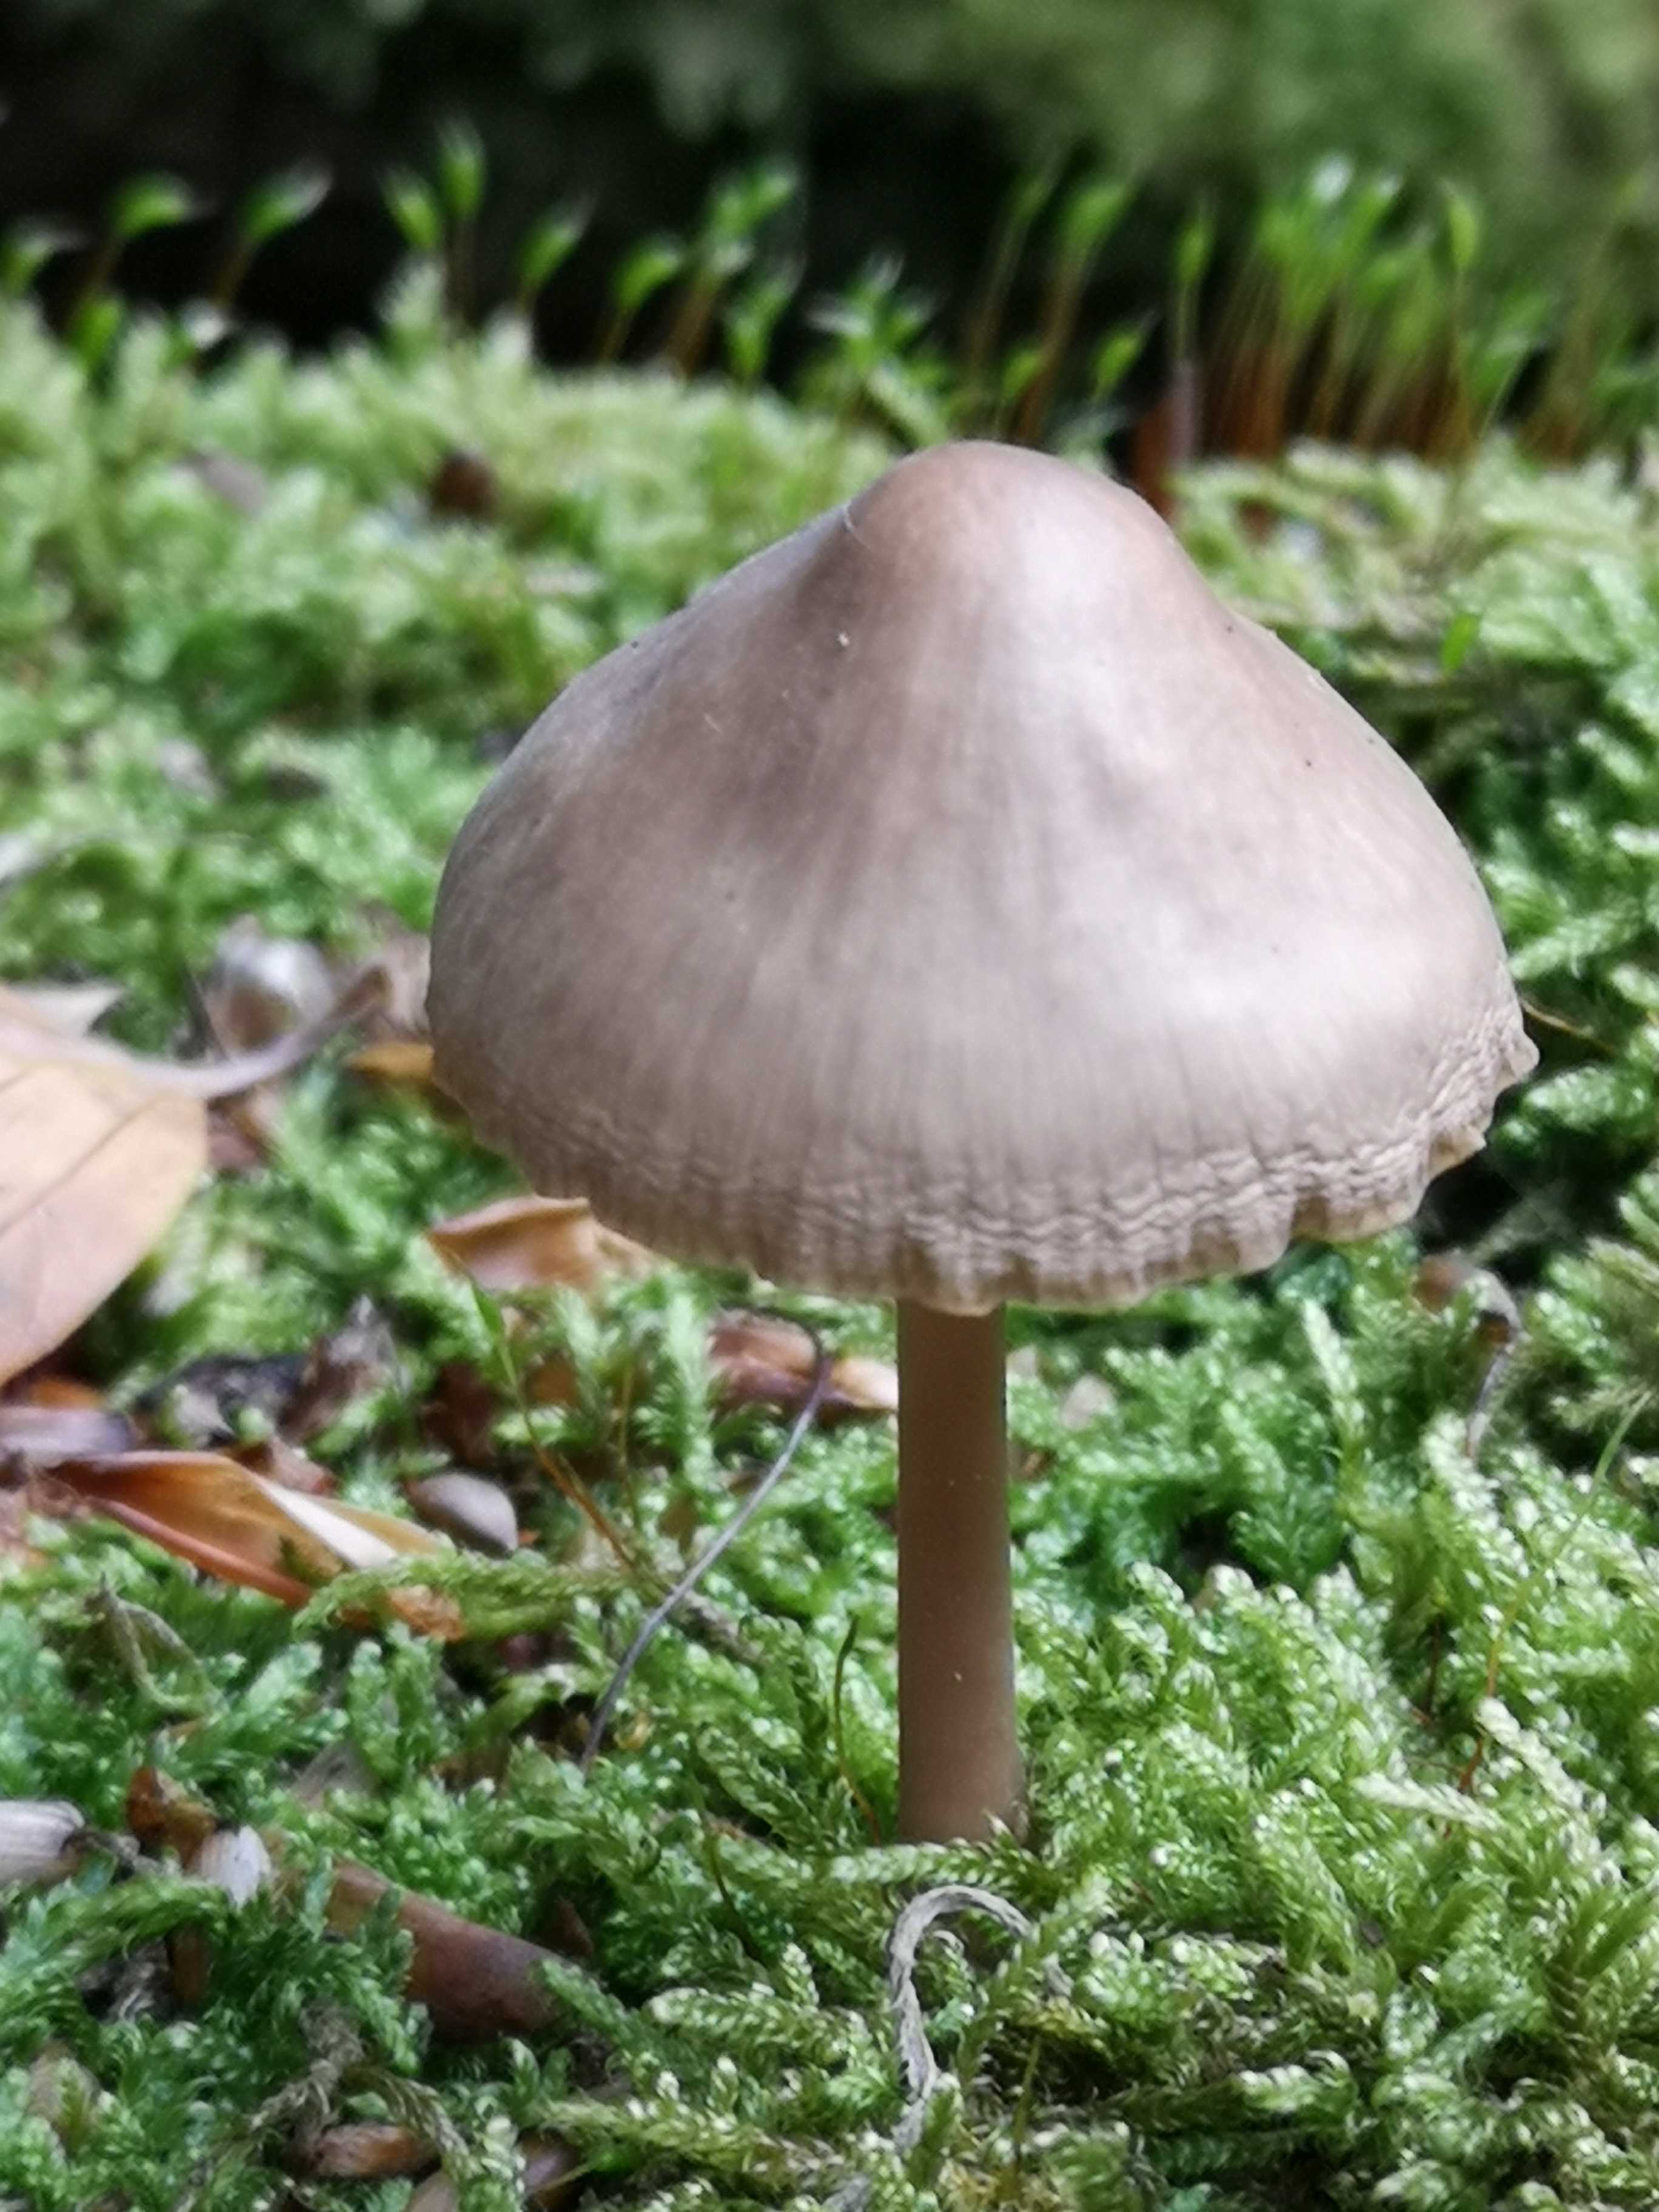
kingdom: Fungi
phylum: Basidiomycota
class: Agaricomycetes
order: Agaricales
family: Mycenaceae
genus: Mycena
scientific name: Mycena galericulata
